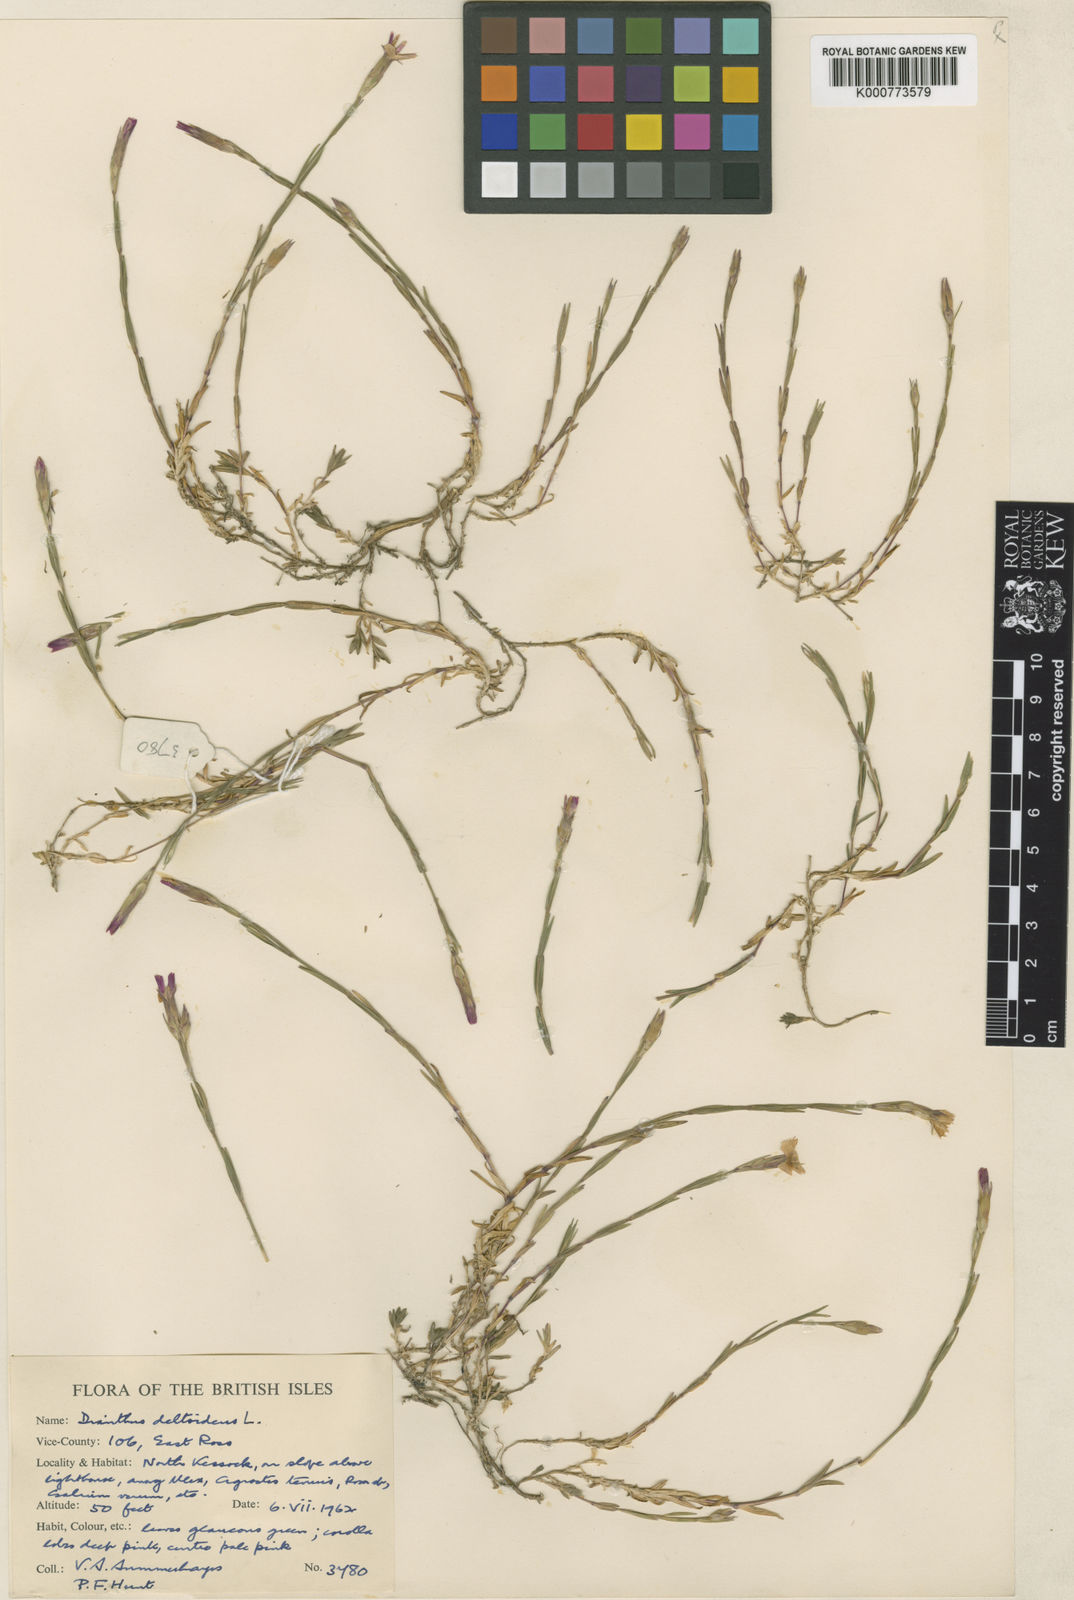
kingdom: Plantae
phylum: Tracheophyta
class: Magnoliopsida
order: Caryophyllales
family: Caryophyllaceae
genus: Dianthus
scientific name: Dianthus deltoides
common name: Maiden pink
